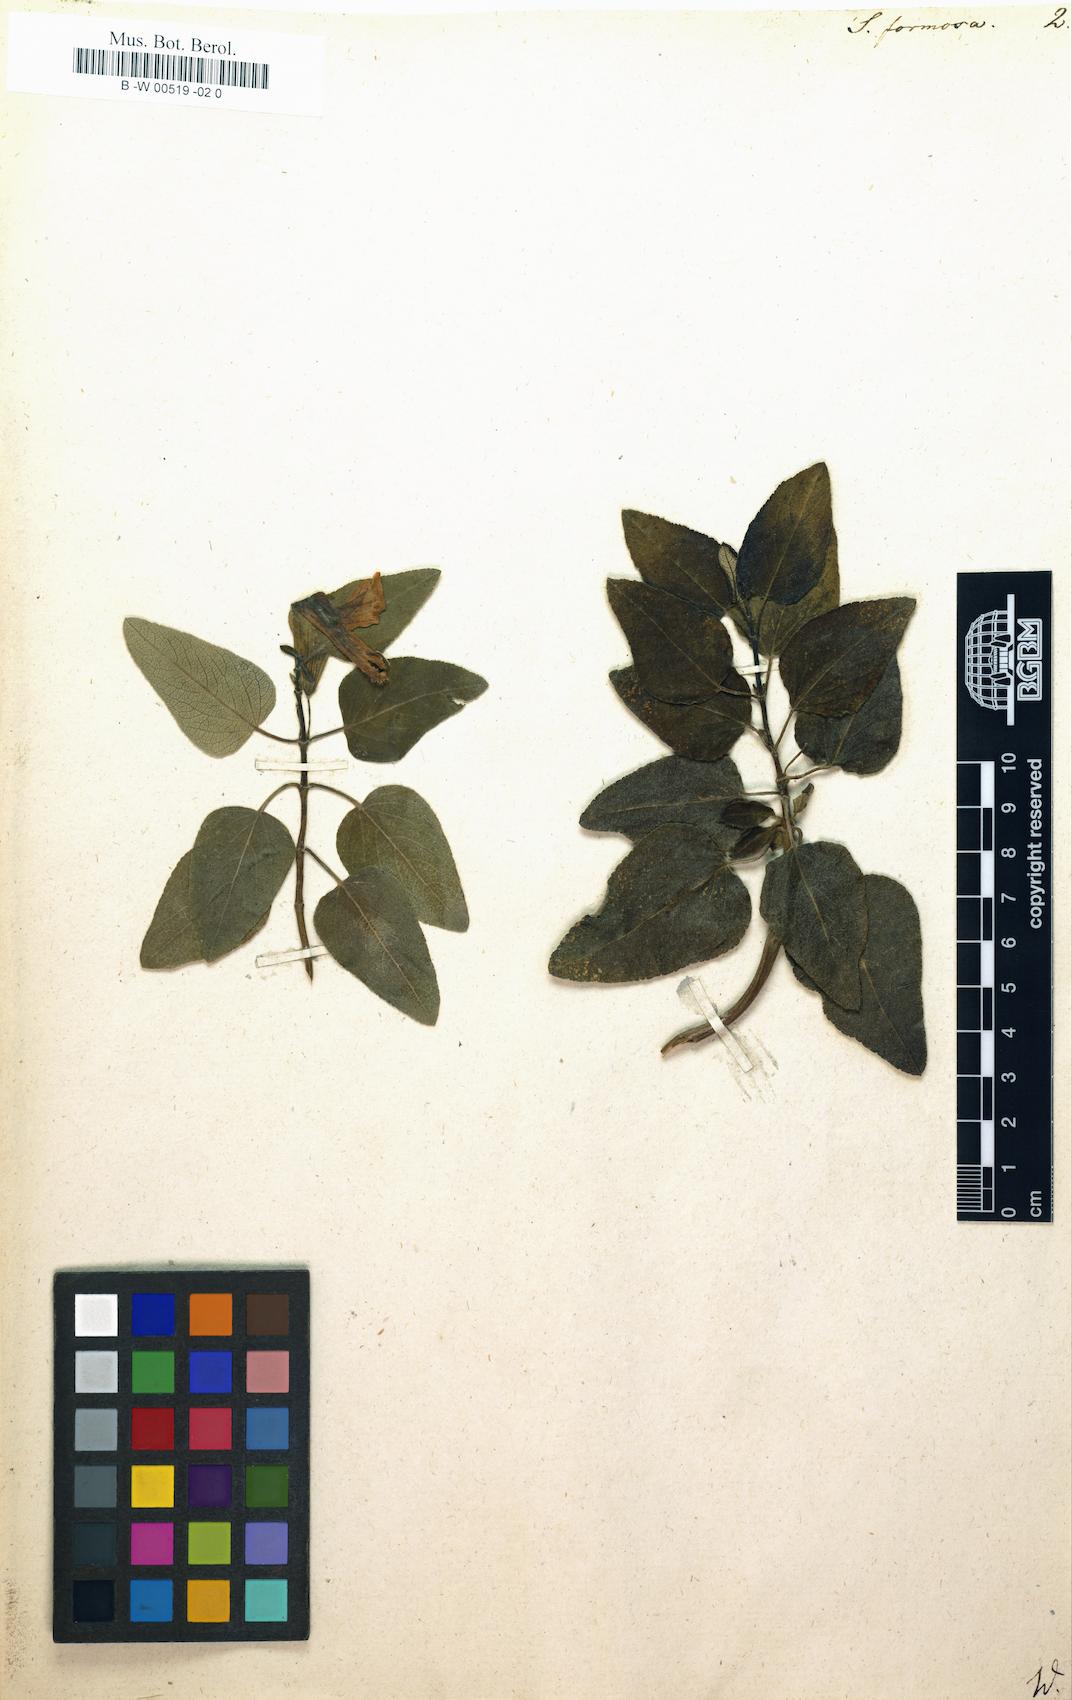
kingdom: Plantae
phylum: Tracheophyta
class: Magnoliopsida
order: Lamiales
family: Lamiaceae
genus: Salvia
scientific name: Salvia leonuroides
